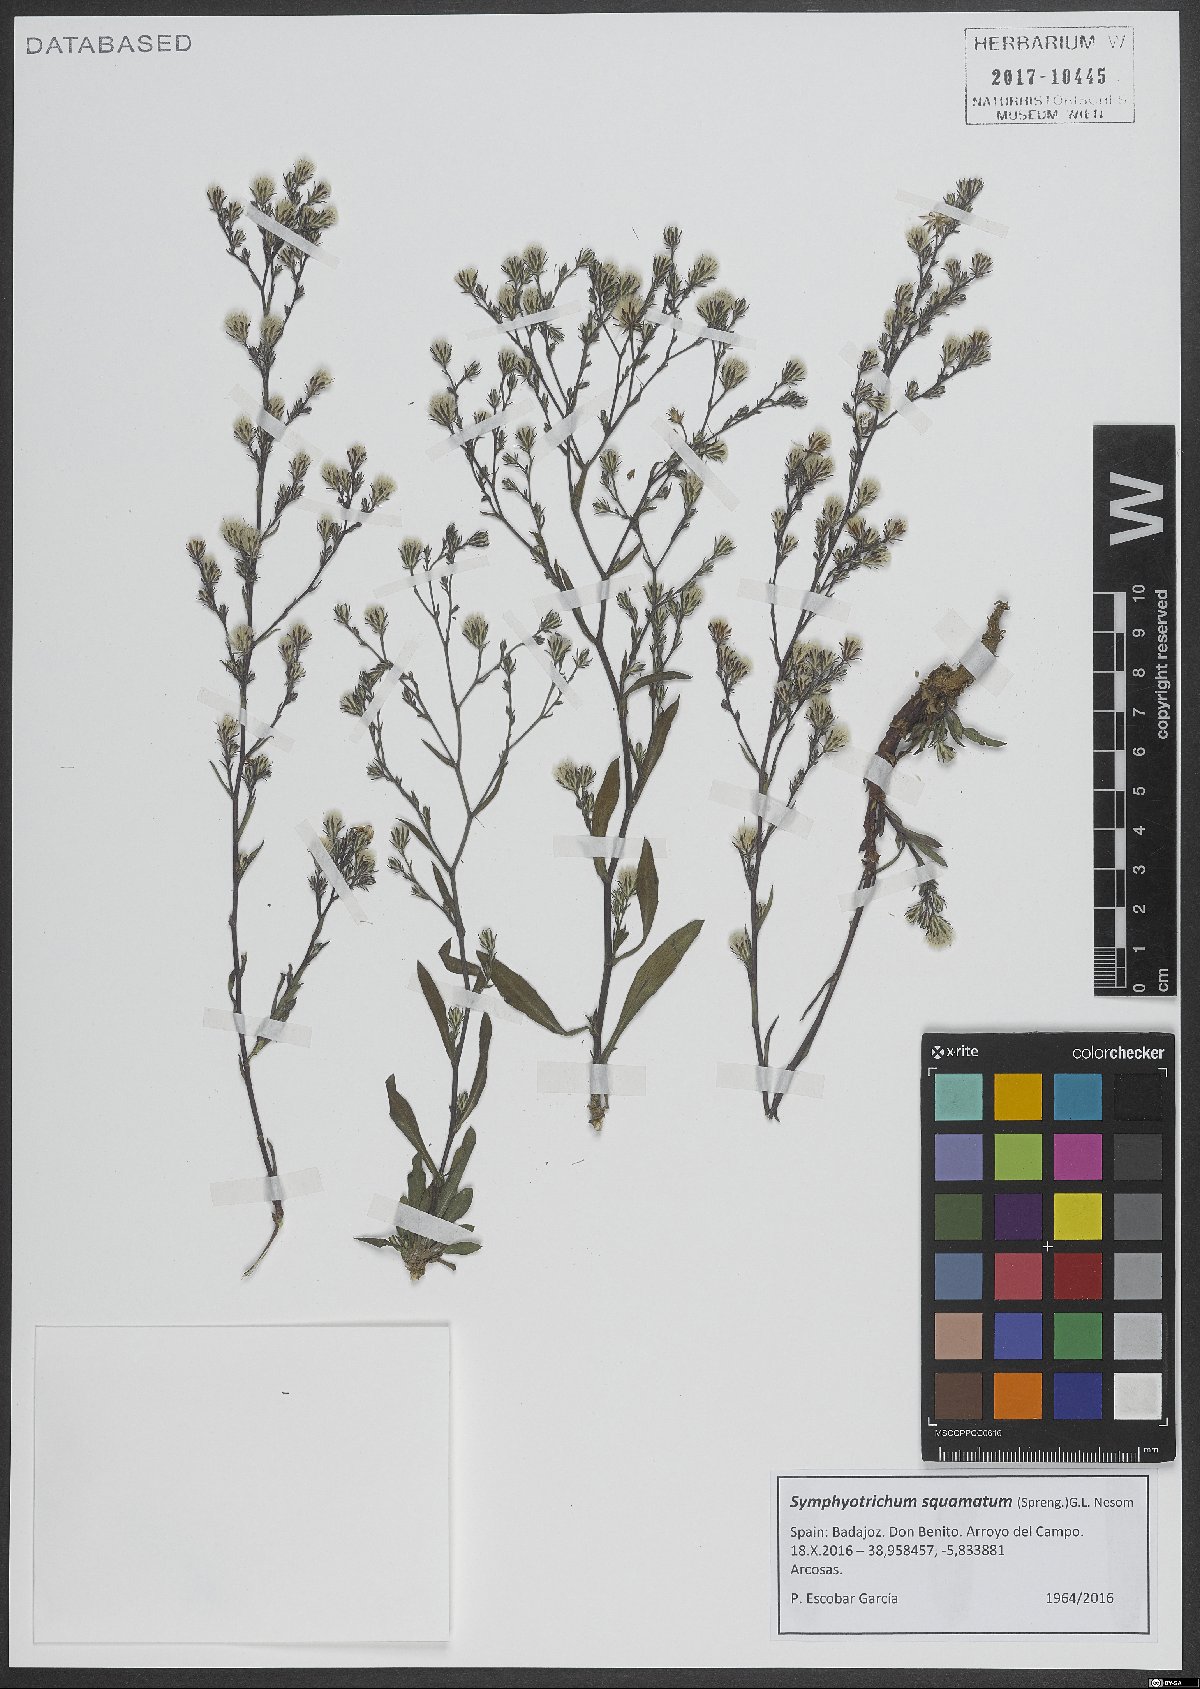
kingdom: Plantae
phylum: Tracheophyta
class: Magnoliopsida
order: Asterales
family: Asteraceae
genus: Symphyotrichum
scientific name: Symphyotrichum squamatum
